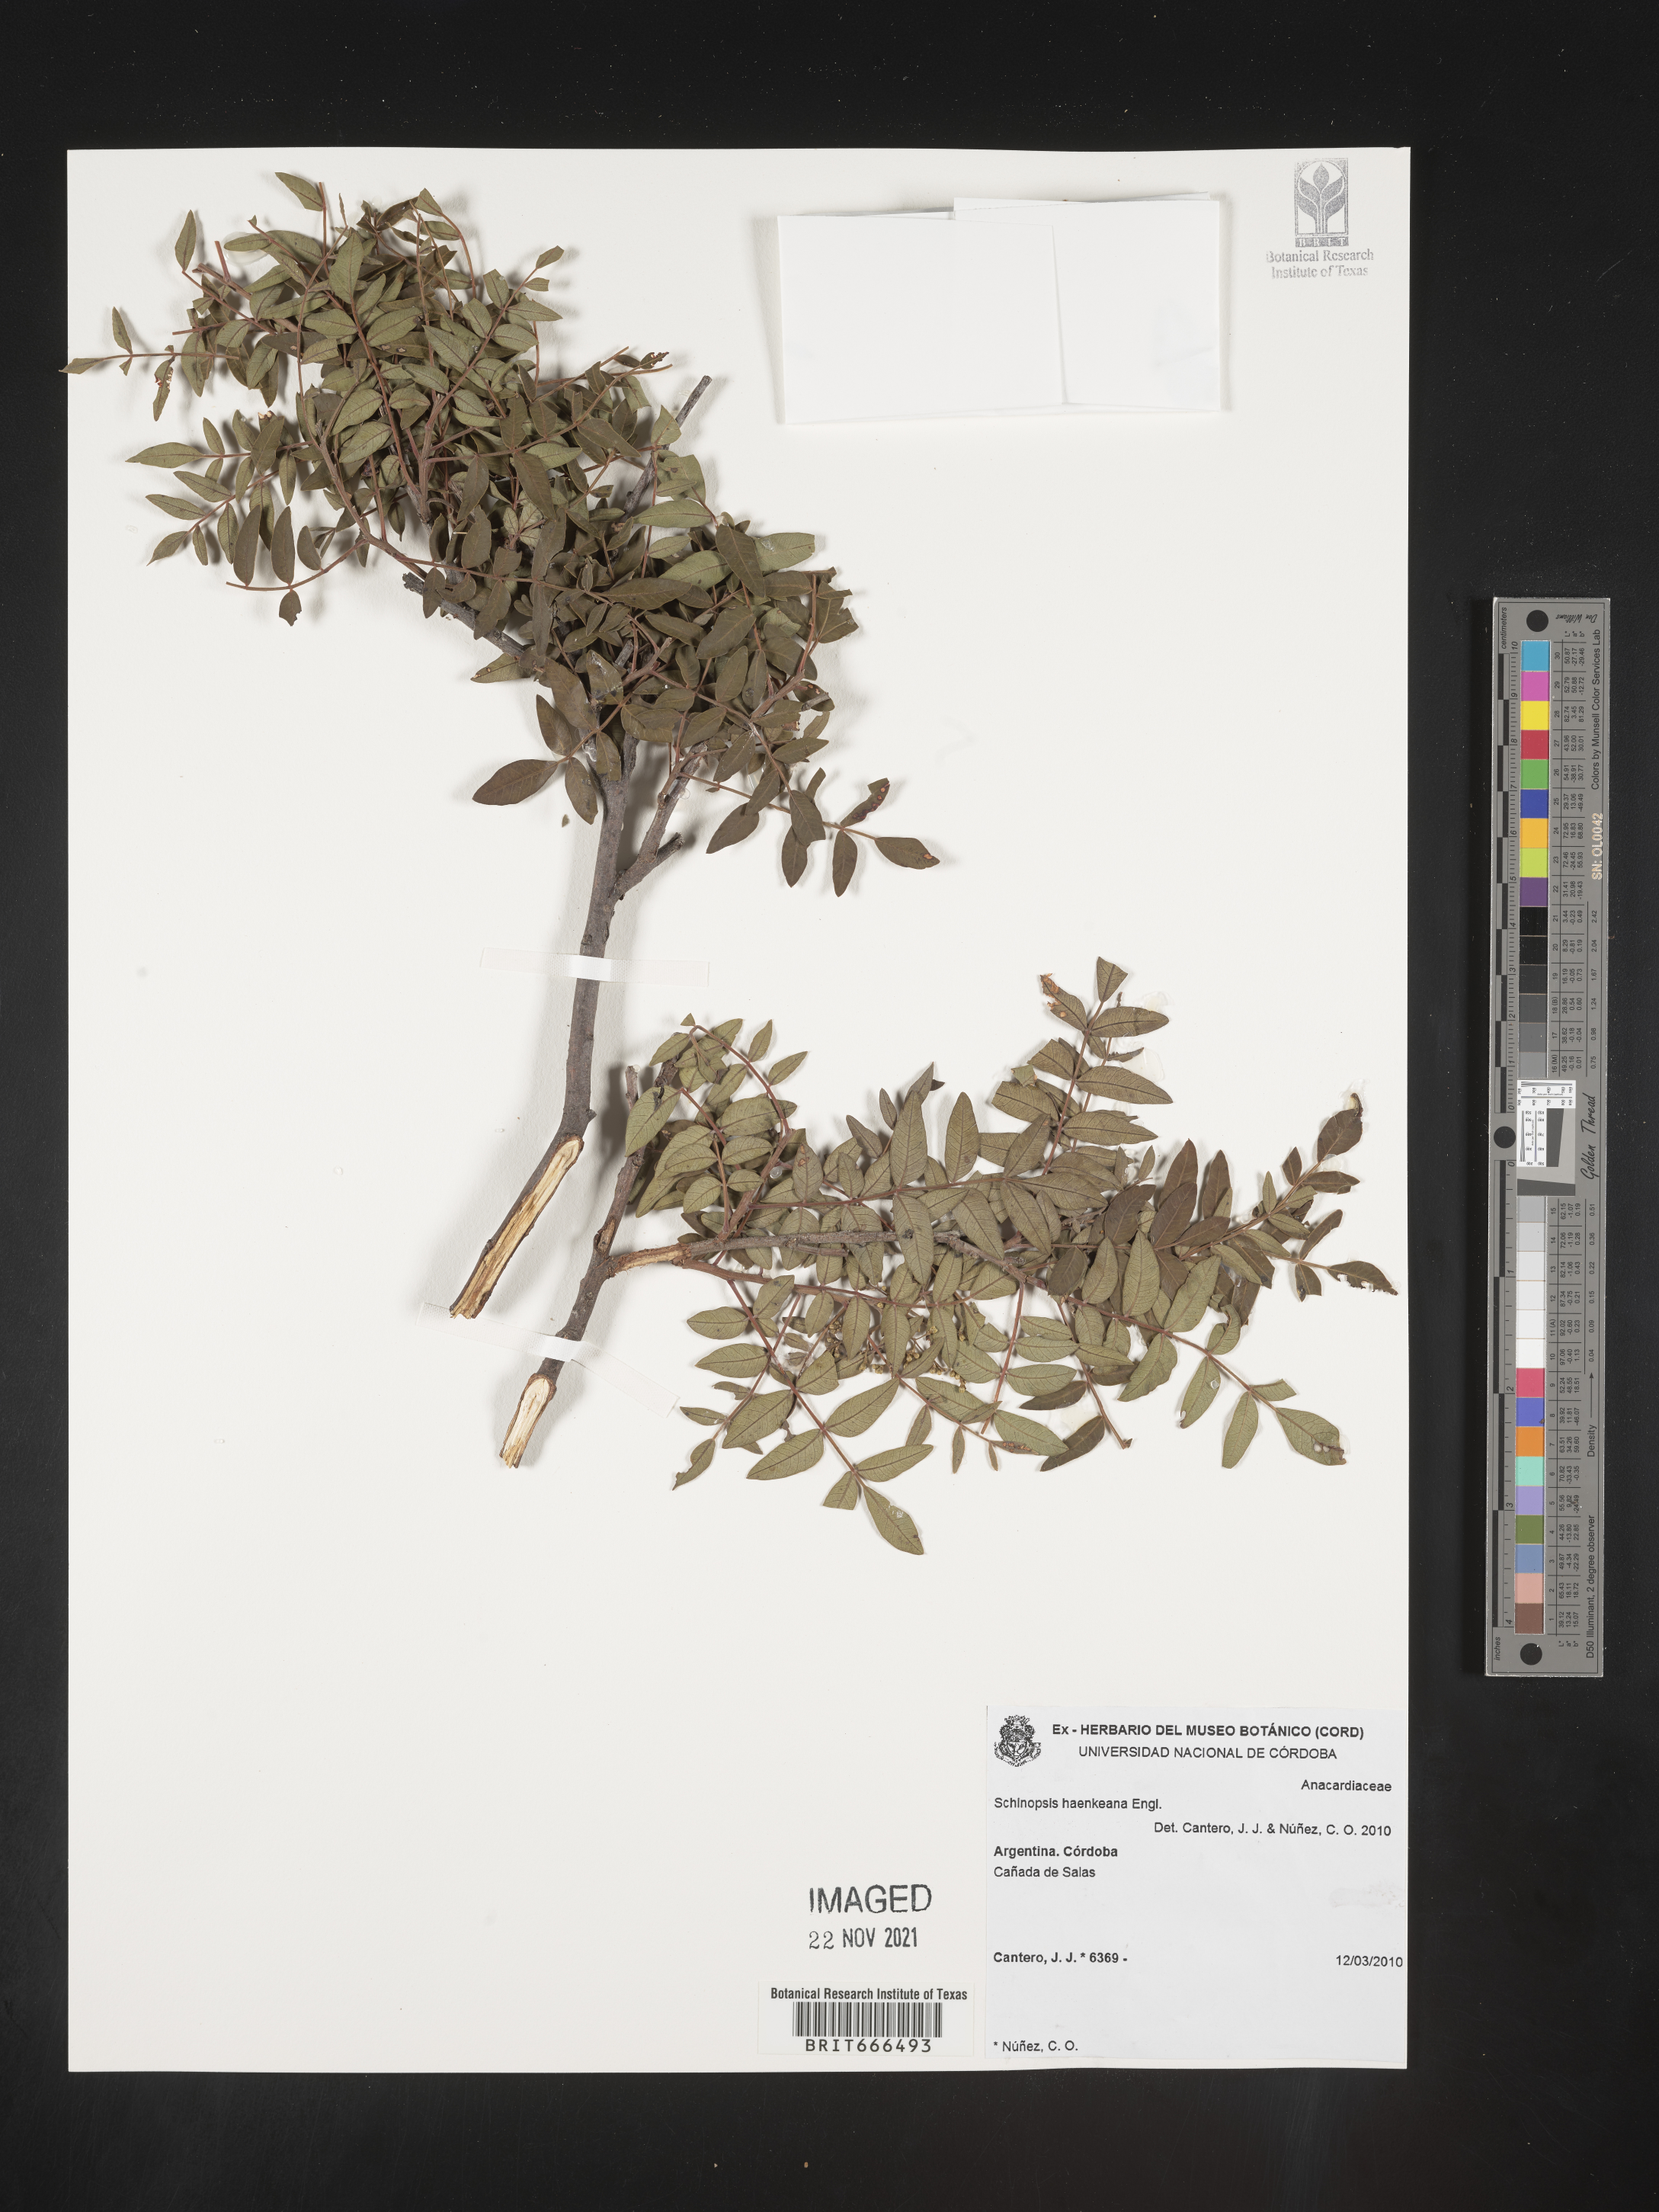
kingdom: Plantae
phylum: Tracheophyta
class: Magnoliopsida
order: Sapindales
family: Anacardiaceae
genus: Schinopsis
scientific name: Schinopsis
